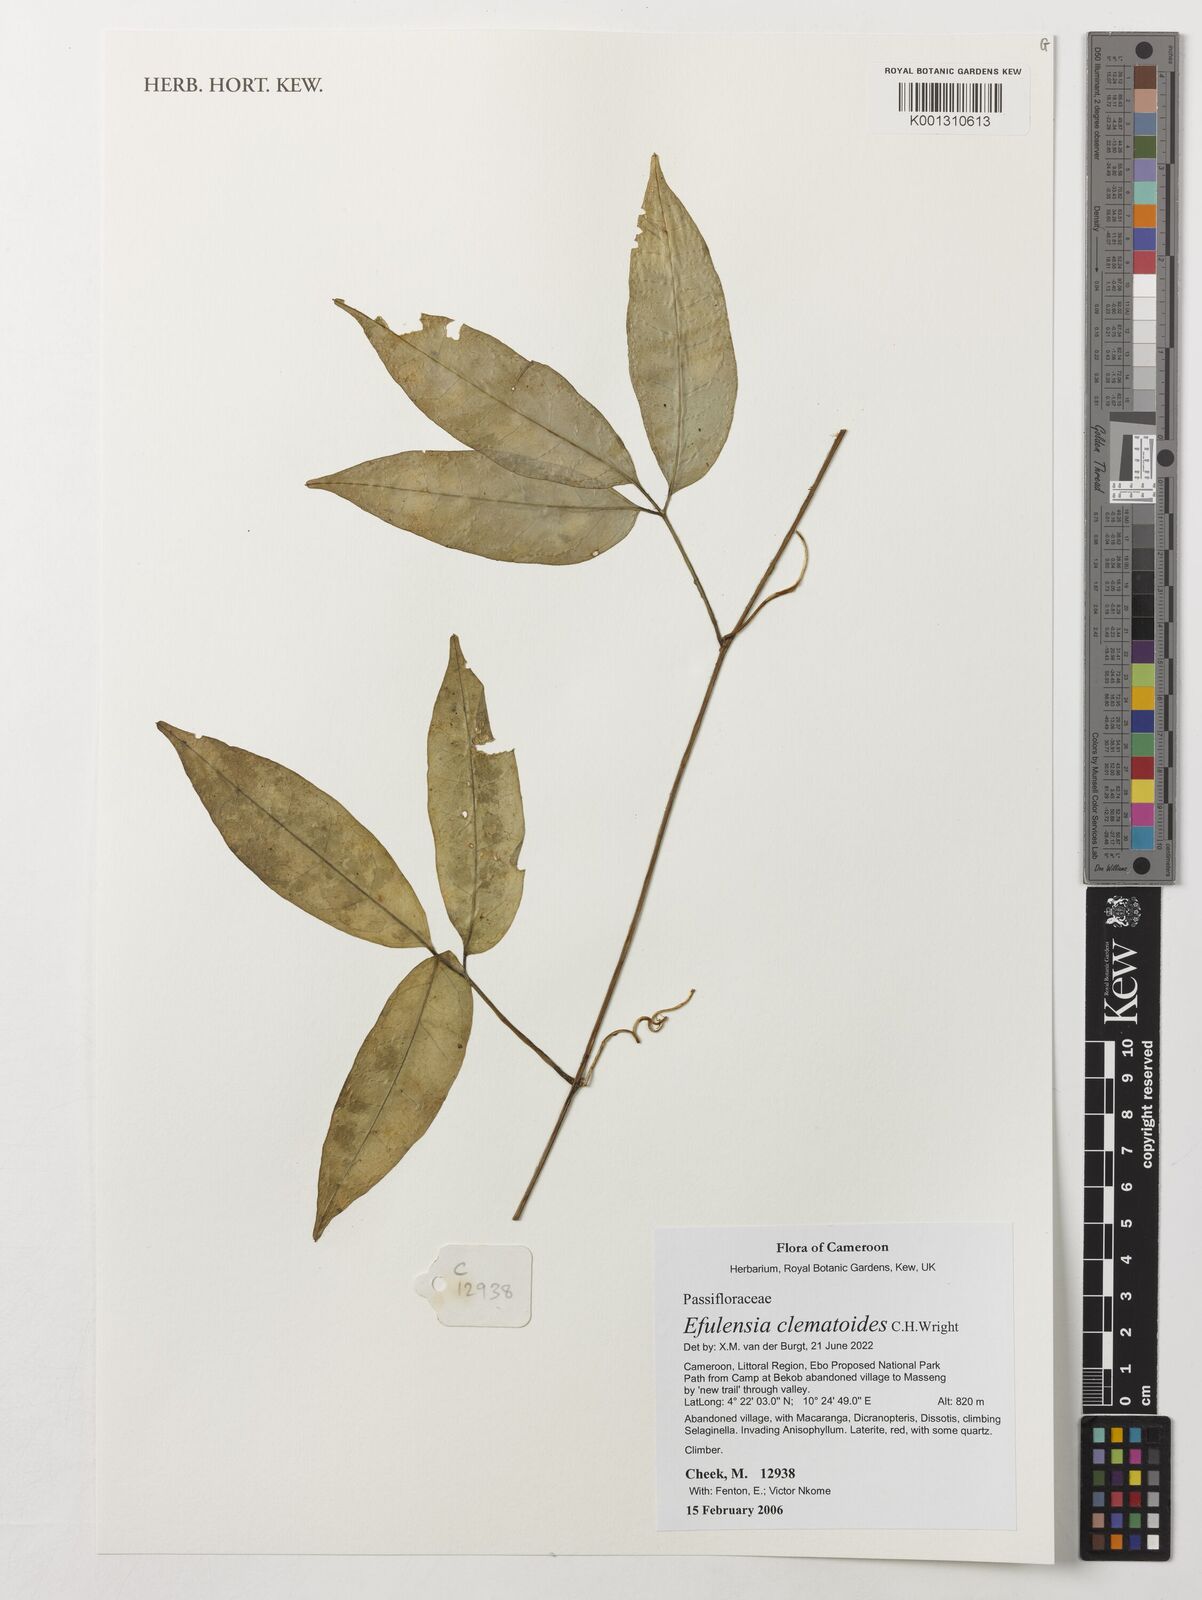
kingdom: Plantae
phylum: Tracheophyta
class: Magnoliopsida
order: Malpighiales
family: Passifloraceae
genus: Efulensia
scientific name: Efulensia clematoides
